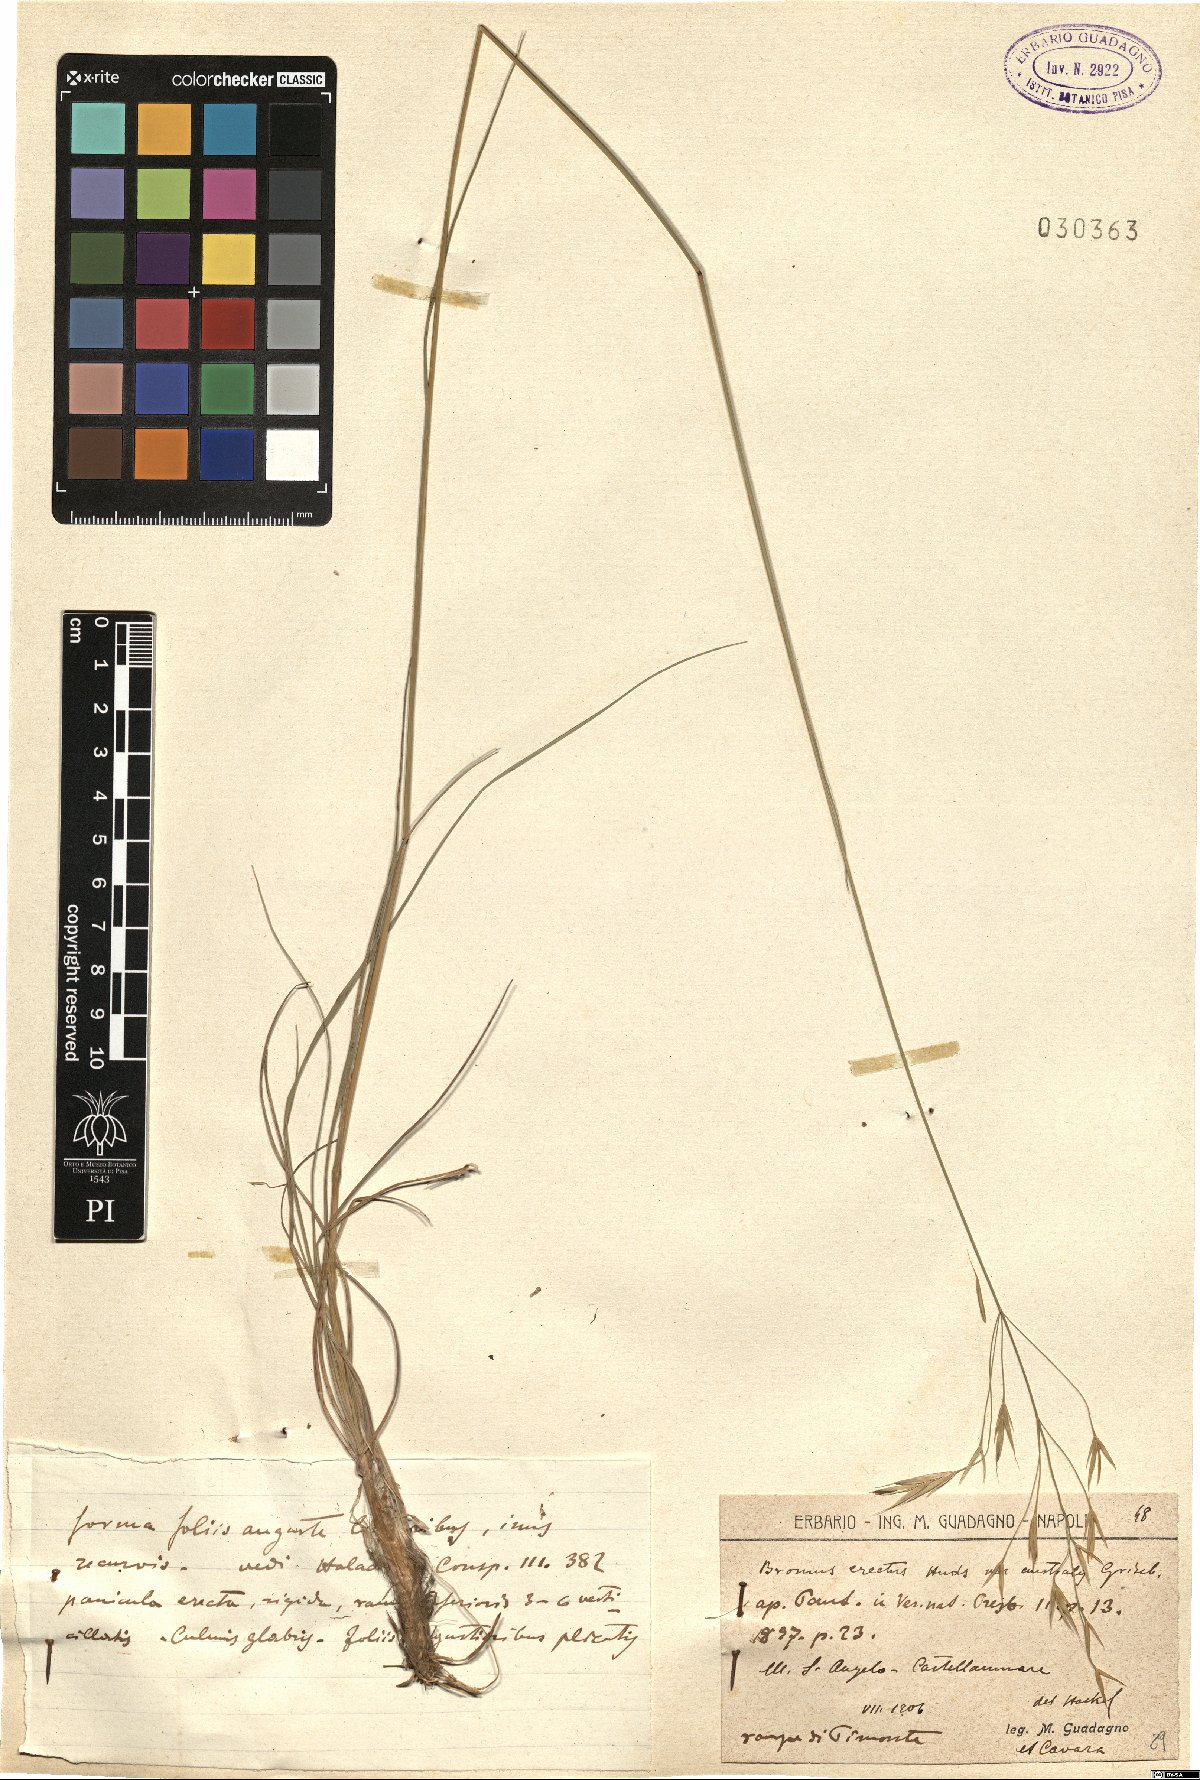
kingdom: Plantae
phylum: Tracheophyta
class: Liliopsida
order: Poales
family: Poaceae
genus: Bromus
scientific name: Bromus condensatus
